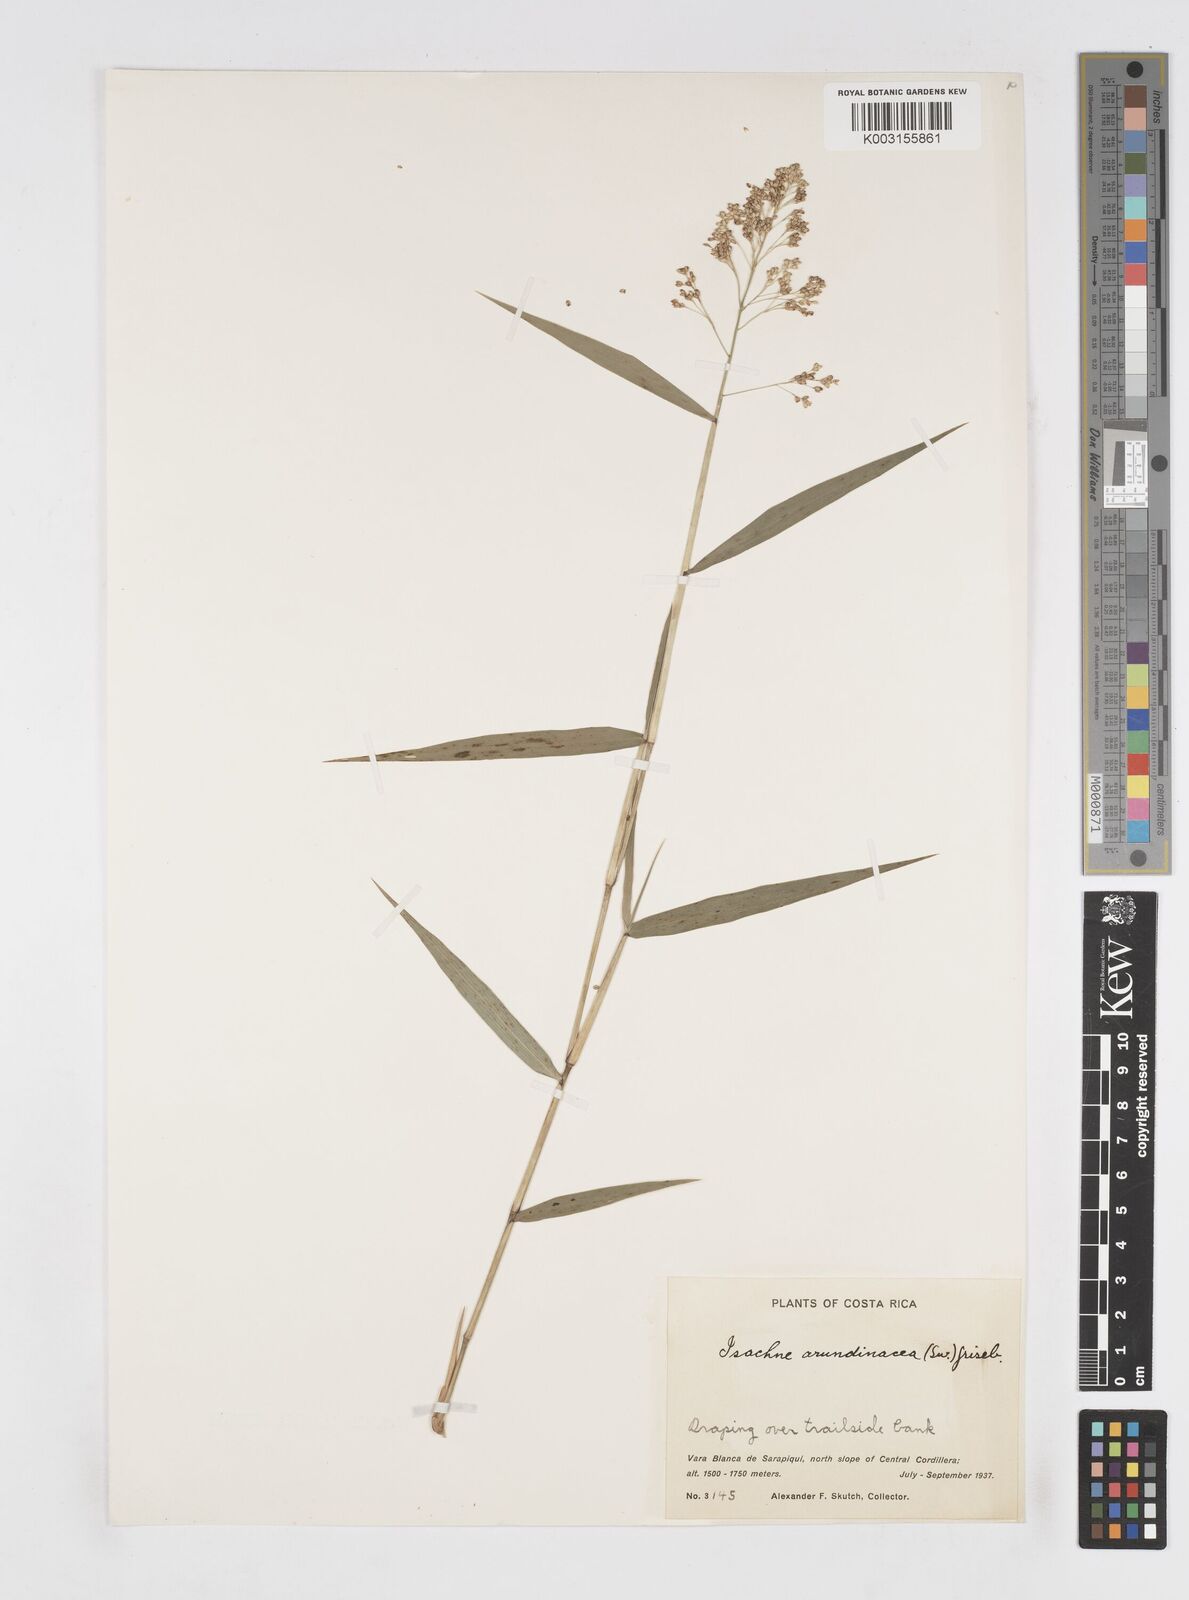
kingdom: Plantae
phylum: Tracheophyta
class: Liliopsida
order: Poales
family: Poaceae
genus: Isachne
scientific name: Isachne arundinacea
